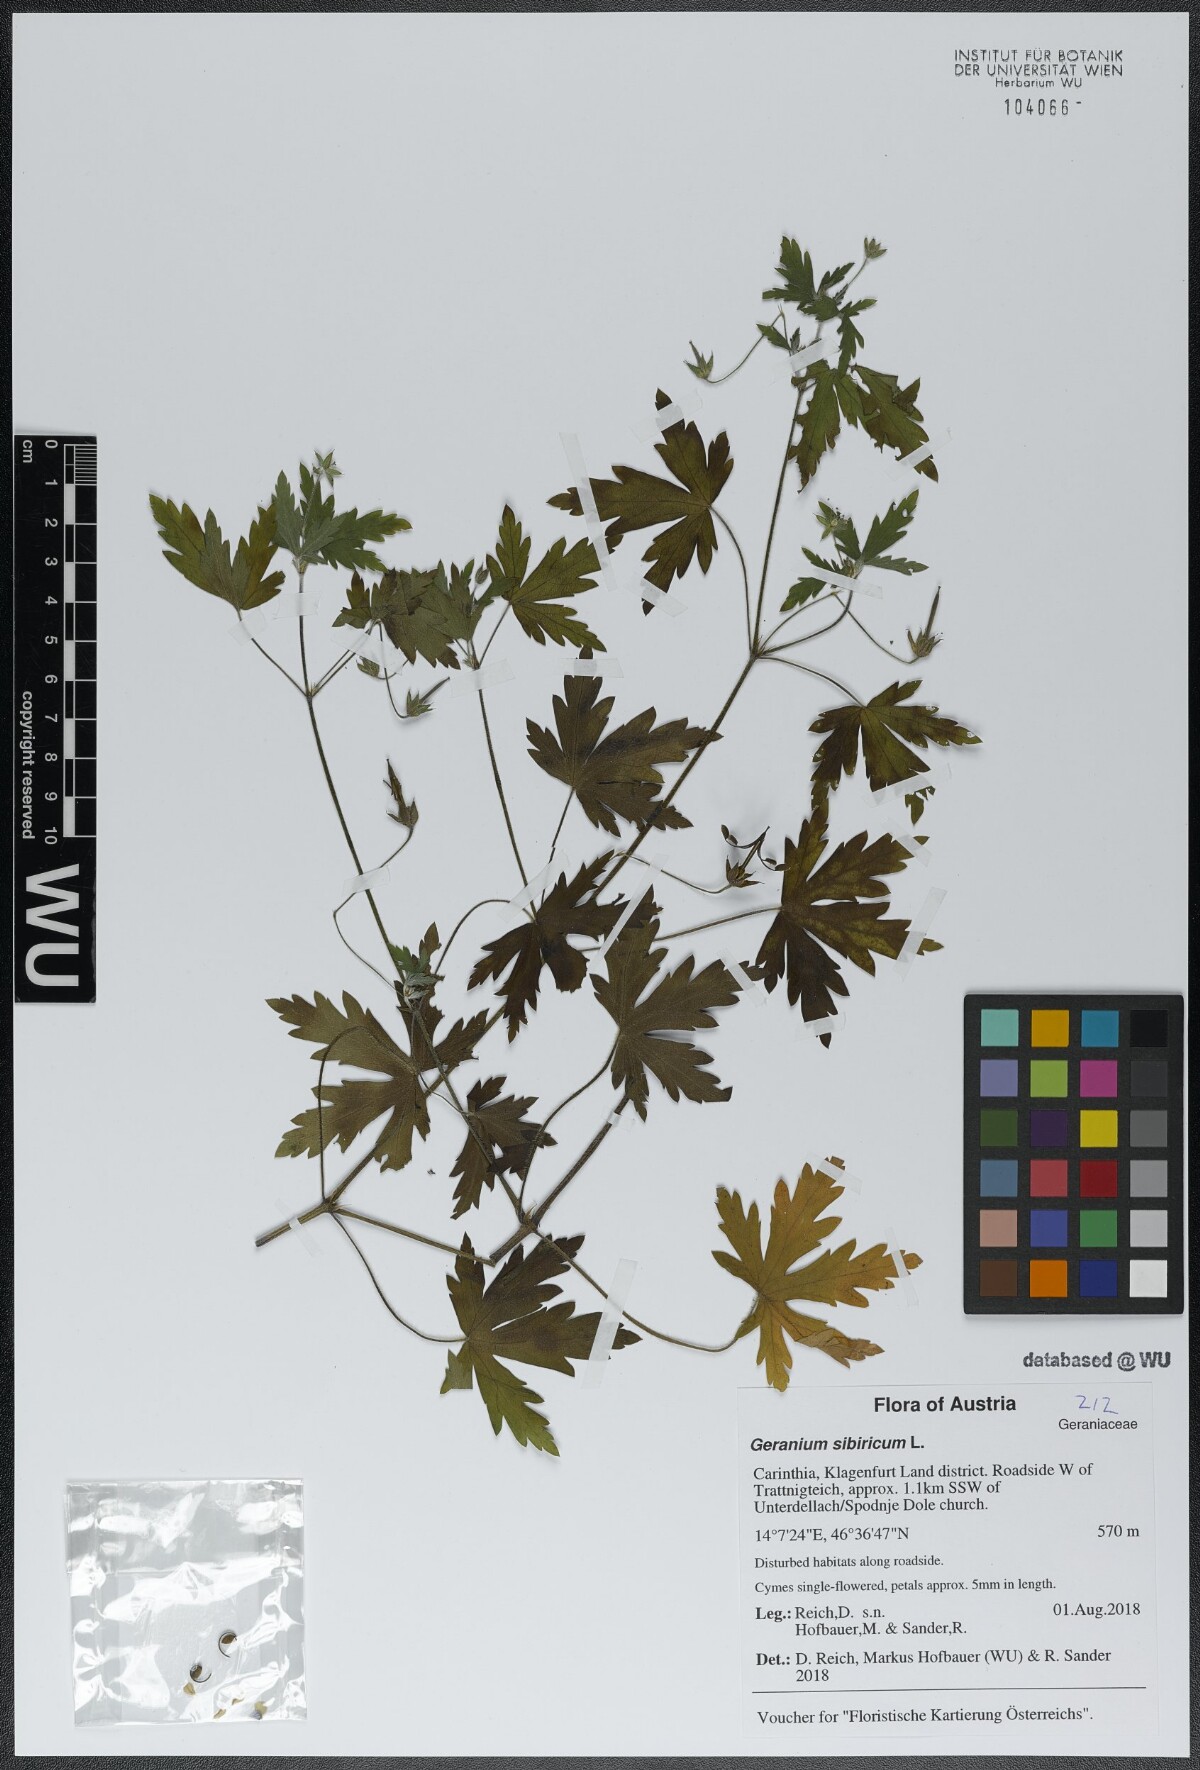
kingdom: Plantae
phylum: Tracheophyta
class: Magnoliopsida
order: Geraniales
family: Geraniaceae
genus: Geranium
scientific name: Geranium sibiricum
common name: Siberian crane's-bill
